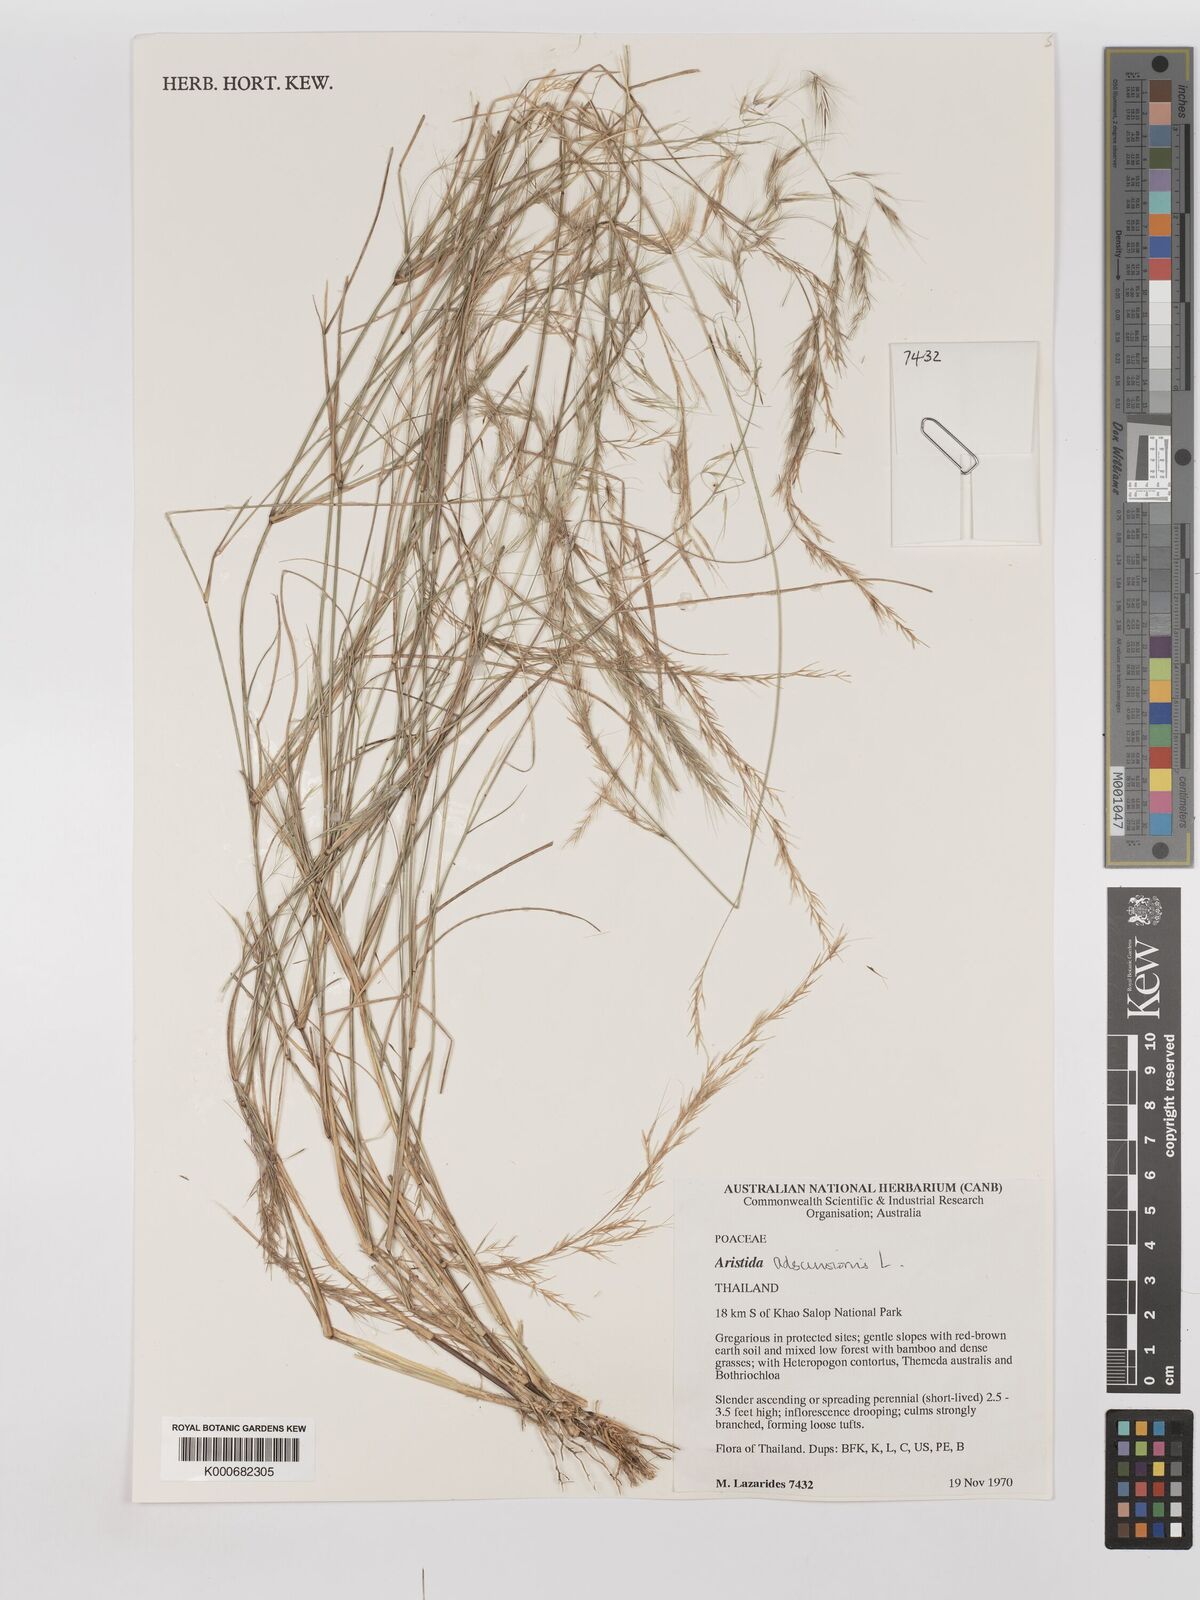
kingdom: Plantae
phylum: Tracheophyta
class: Liliopsida
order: Poales
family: Poaceae
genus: Aristida
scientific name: Aristida adscensionis
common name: Sixweeks threeawn
